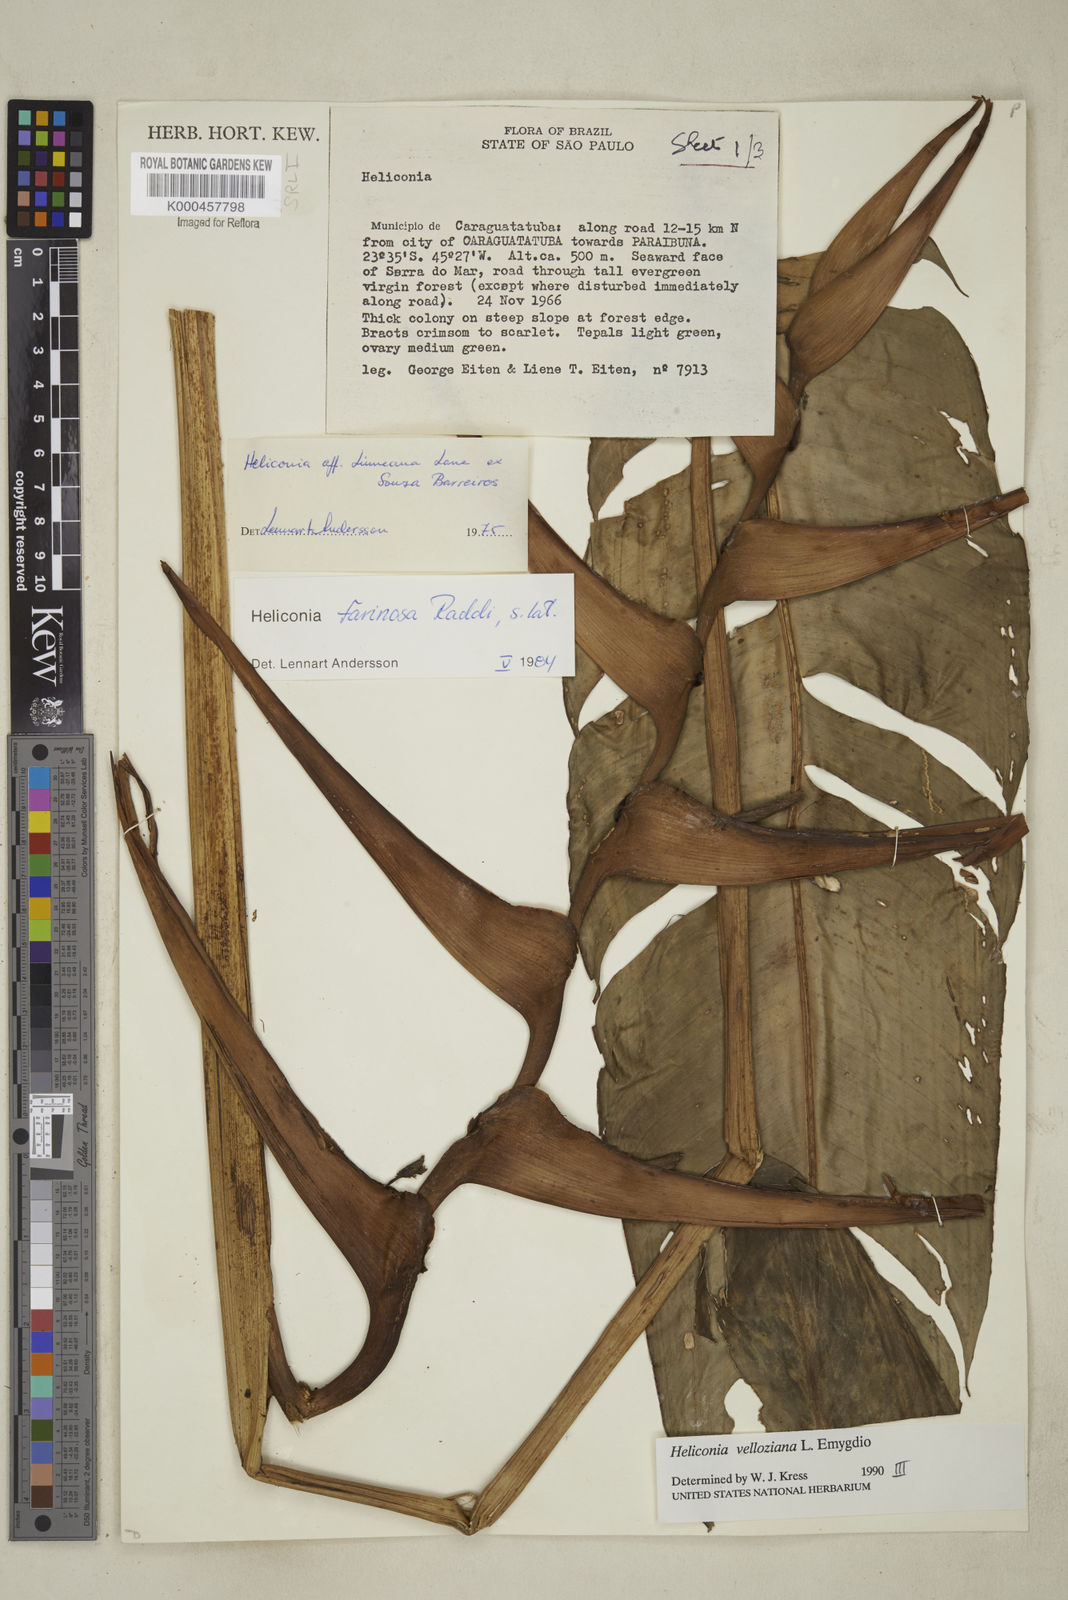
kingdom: Plantae
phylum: Tracheophyta
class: Liliopsida
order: Zingiberales
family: Heliconiaceae
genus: Heliconia
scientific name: Heliconia farinosa
